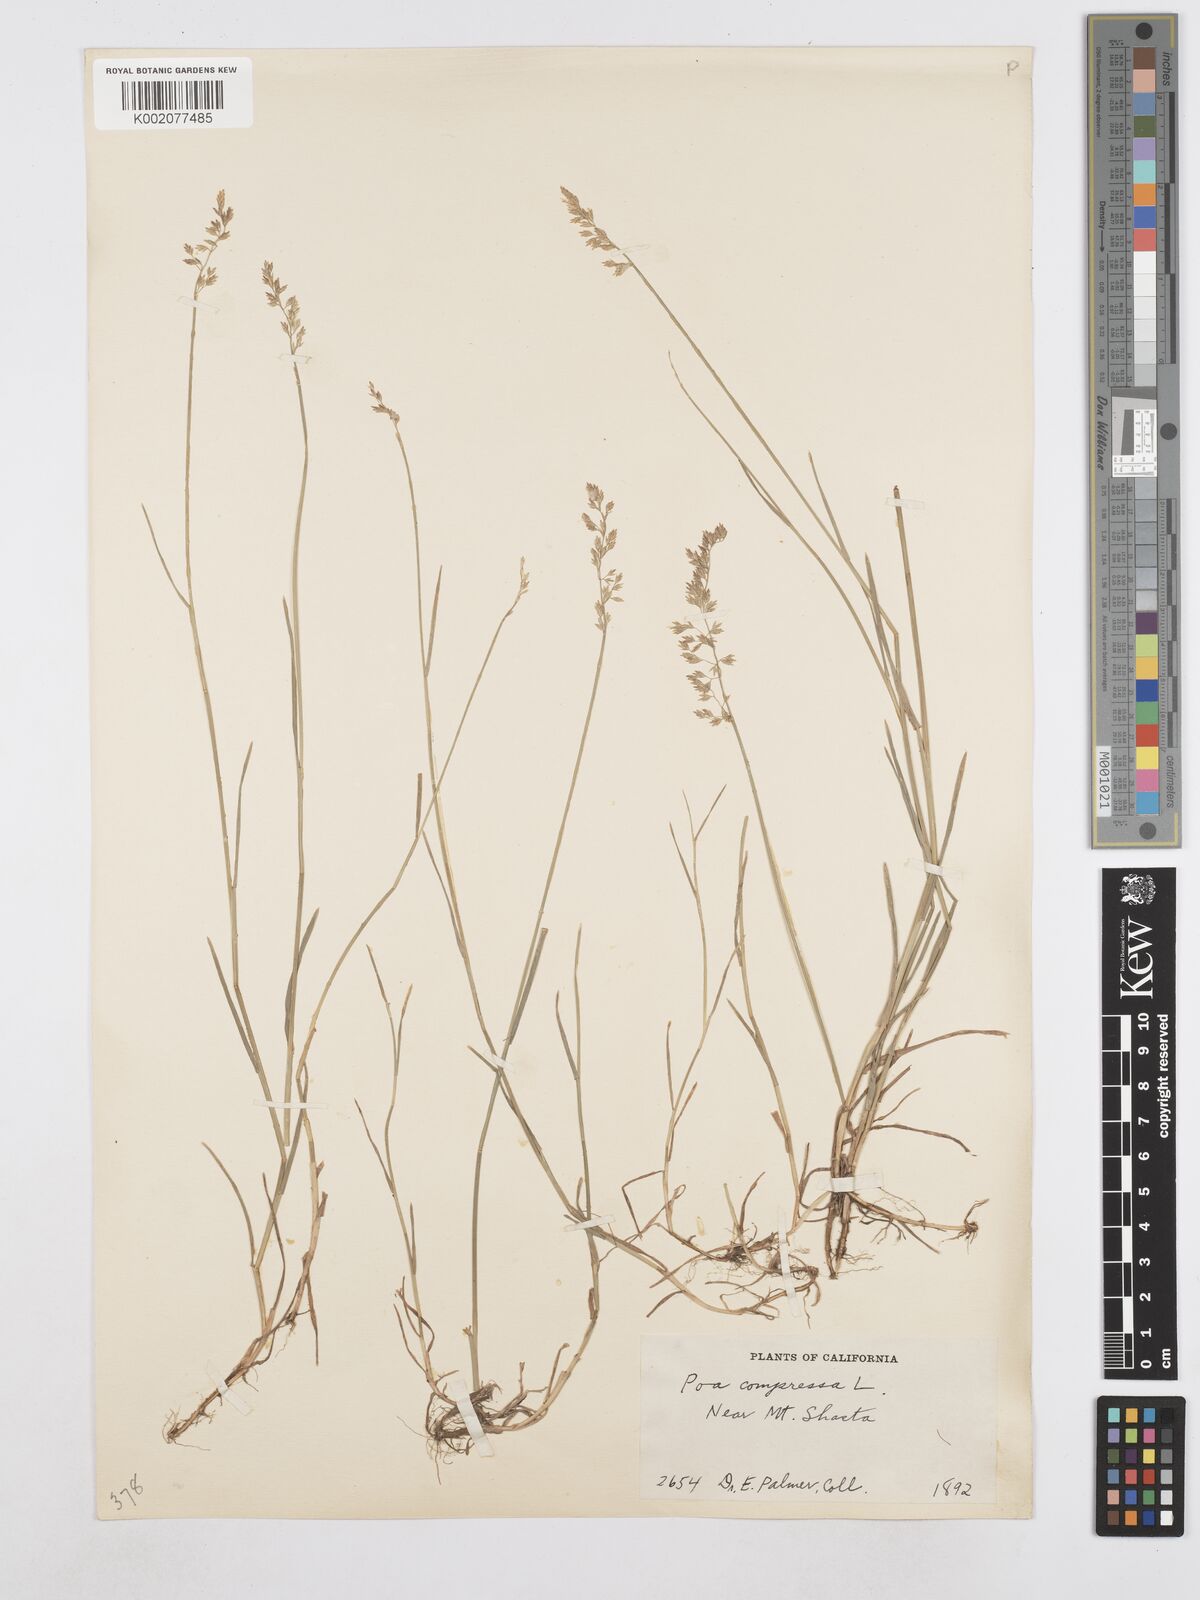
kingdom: Plantae
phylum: Tracheophyta
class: Liliopsida
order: Poales
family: Poaceae
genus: Poa
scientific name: Poa compressa
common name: Canada bluegrass
